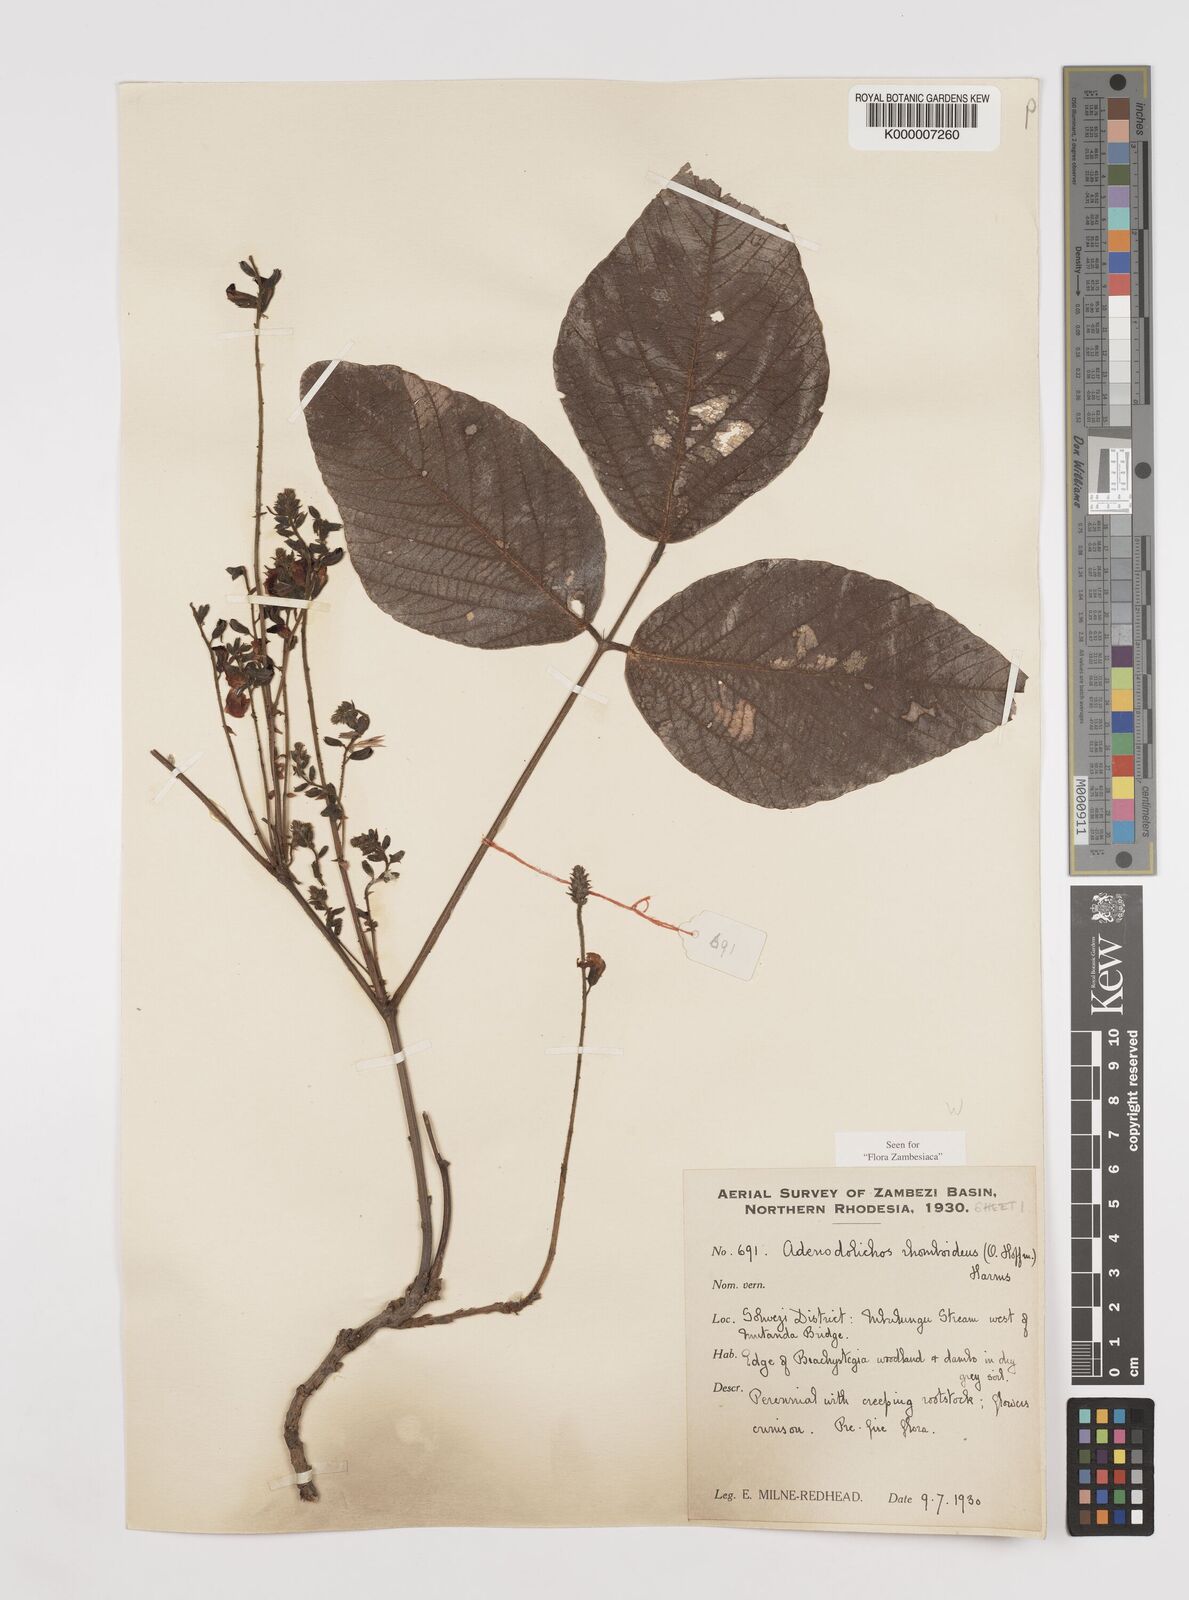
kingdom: Plantae
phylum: Tracheophyta
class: Magnoliopsida
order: Fabales
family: Fabaceae
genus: Adenodolichos
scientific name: Adenodolichos rhomboideus
